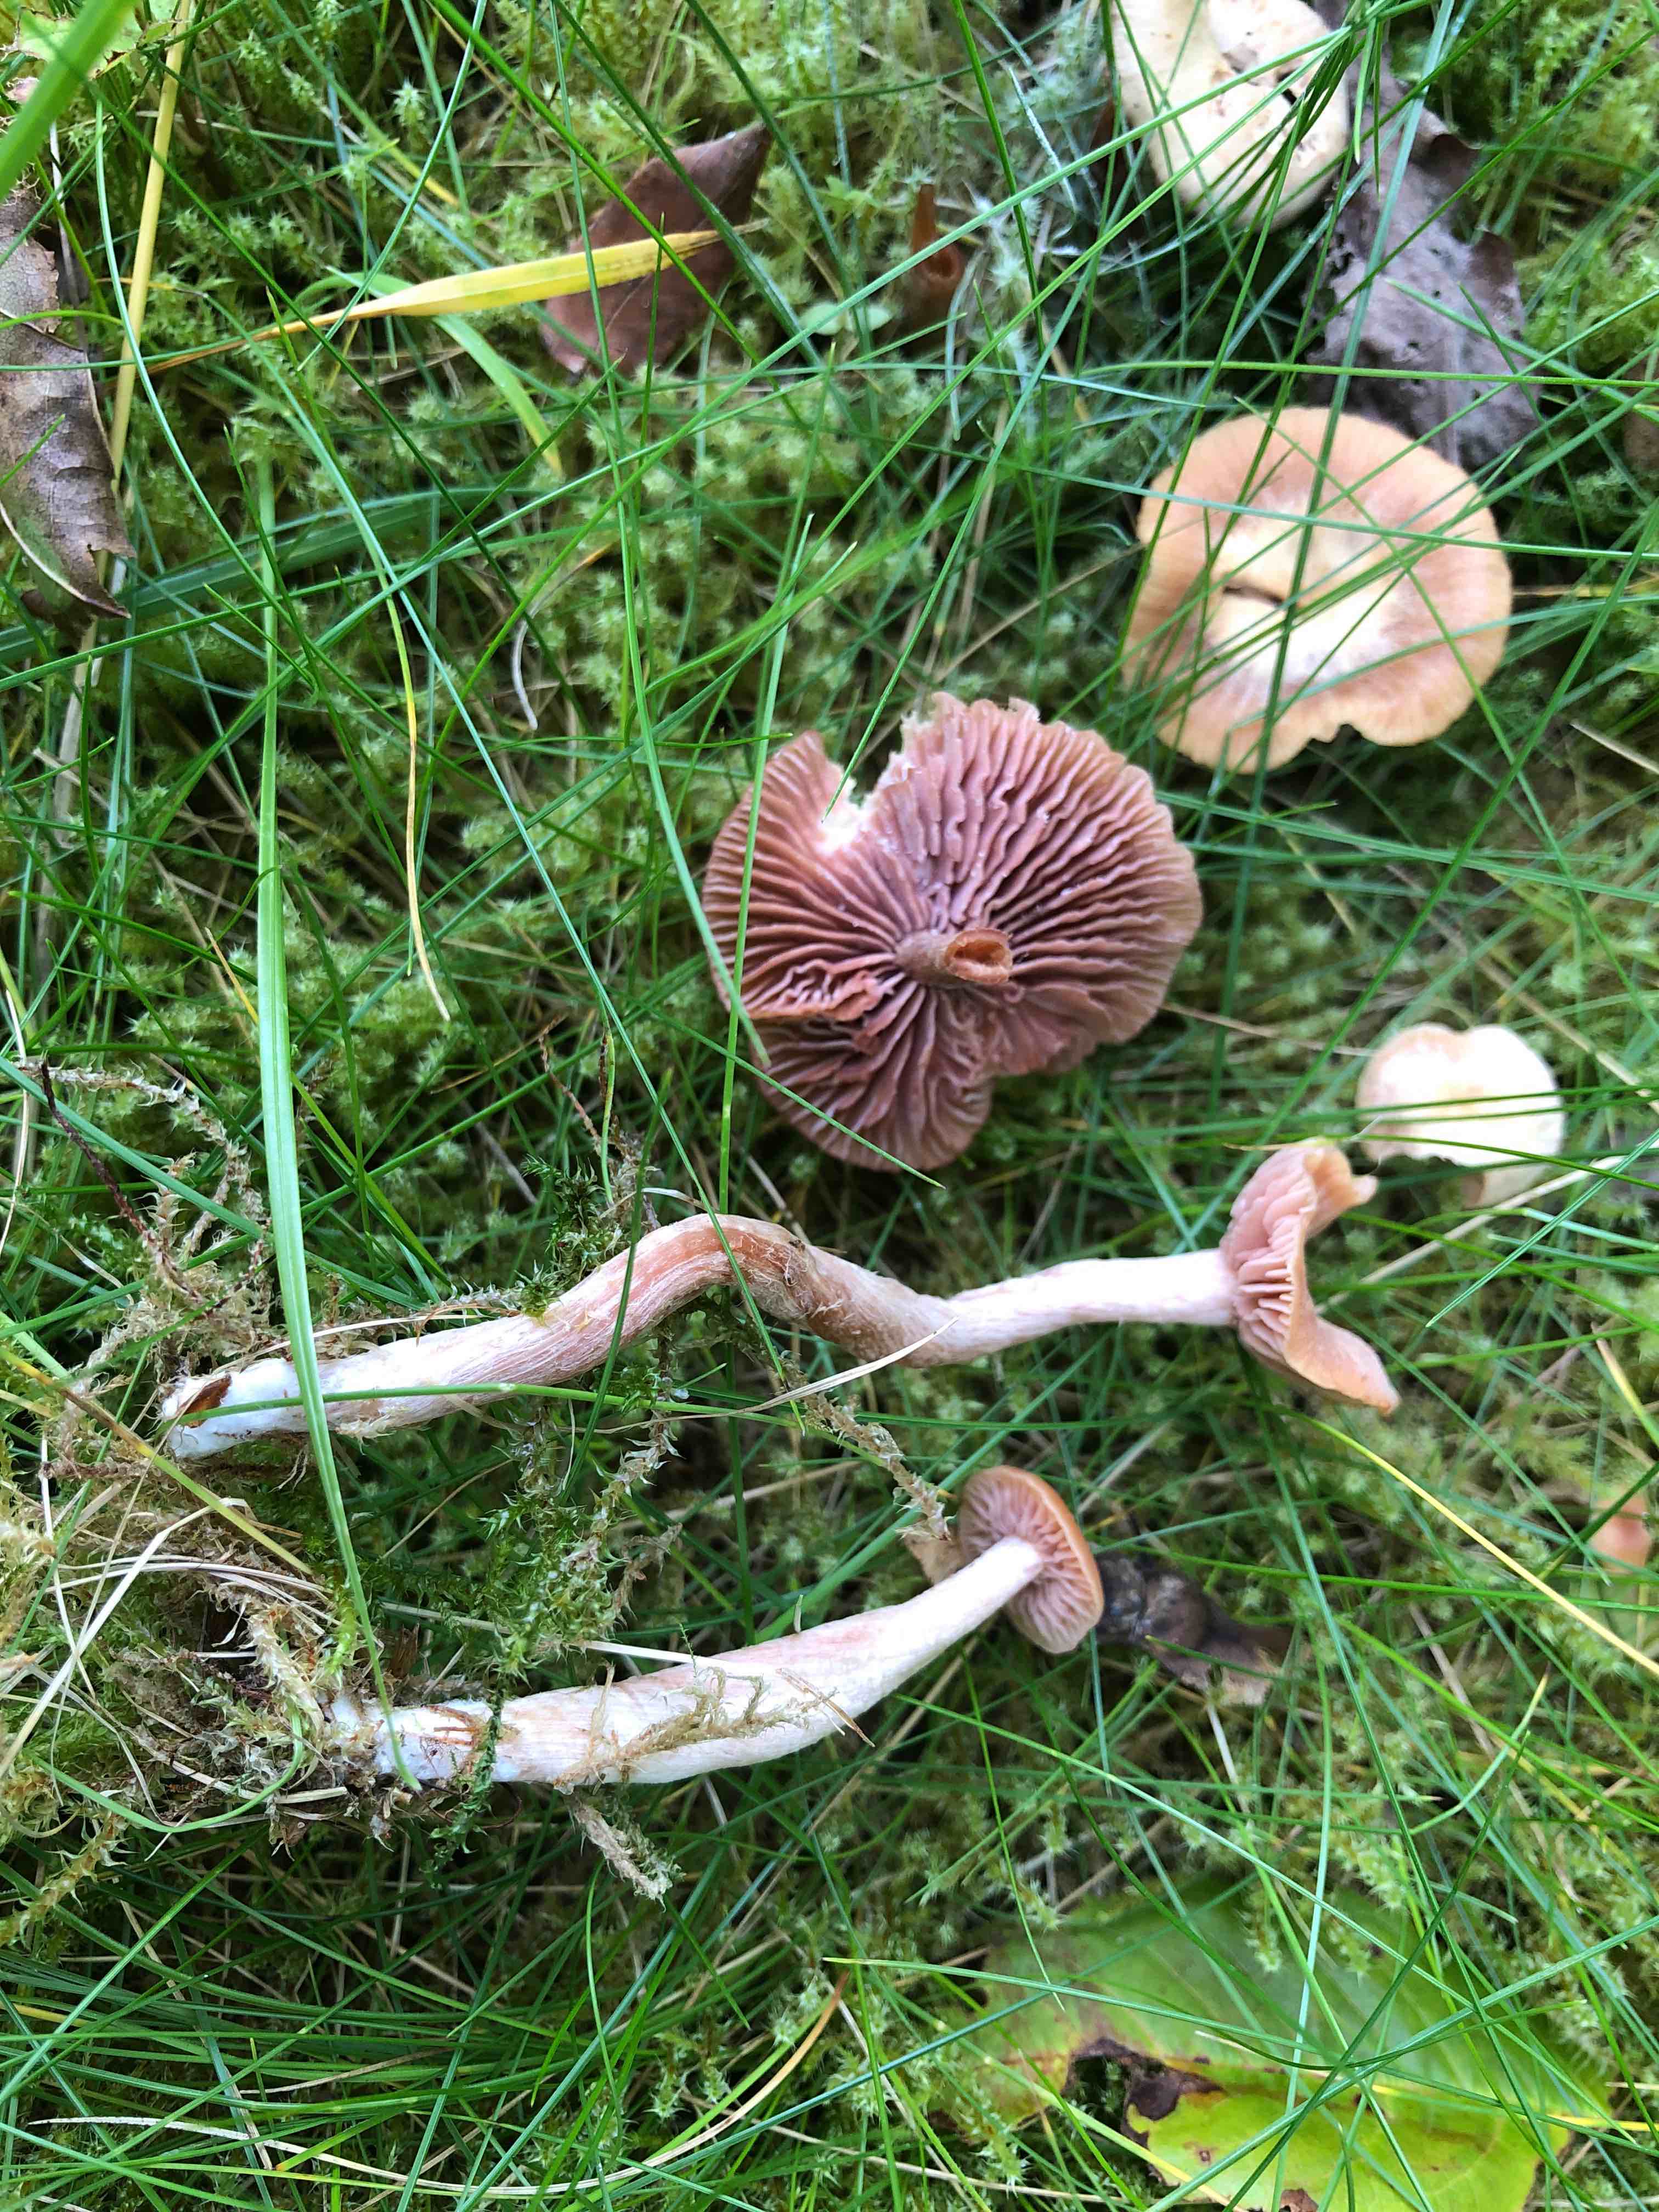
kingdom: Fungi
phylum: Basidiomycota
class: Agaricomycetes
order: Agaricales
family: Hydnangiaceae
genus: Laccaria
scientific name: Laccaria laccata
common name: rød ametysthat
